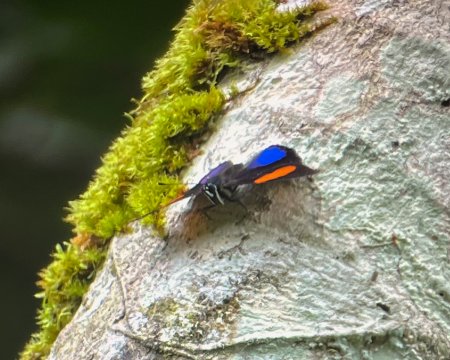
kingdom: Animalia
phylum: Arthropoda
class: Insecta
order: Lepidoptera
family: Nymphalidae
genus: Catagramma
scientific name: Catagramma Callicore tolima
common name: Blue-and-orange Eighty-eight
